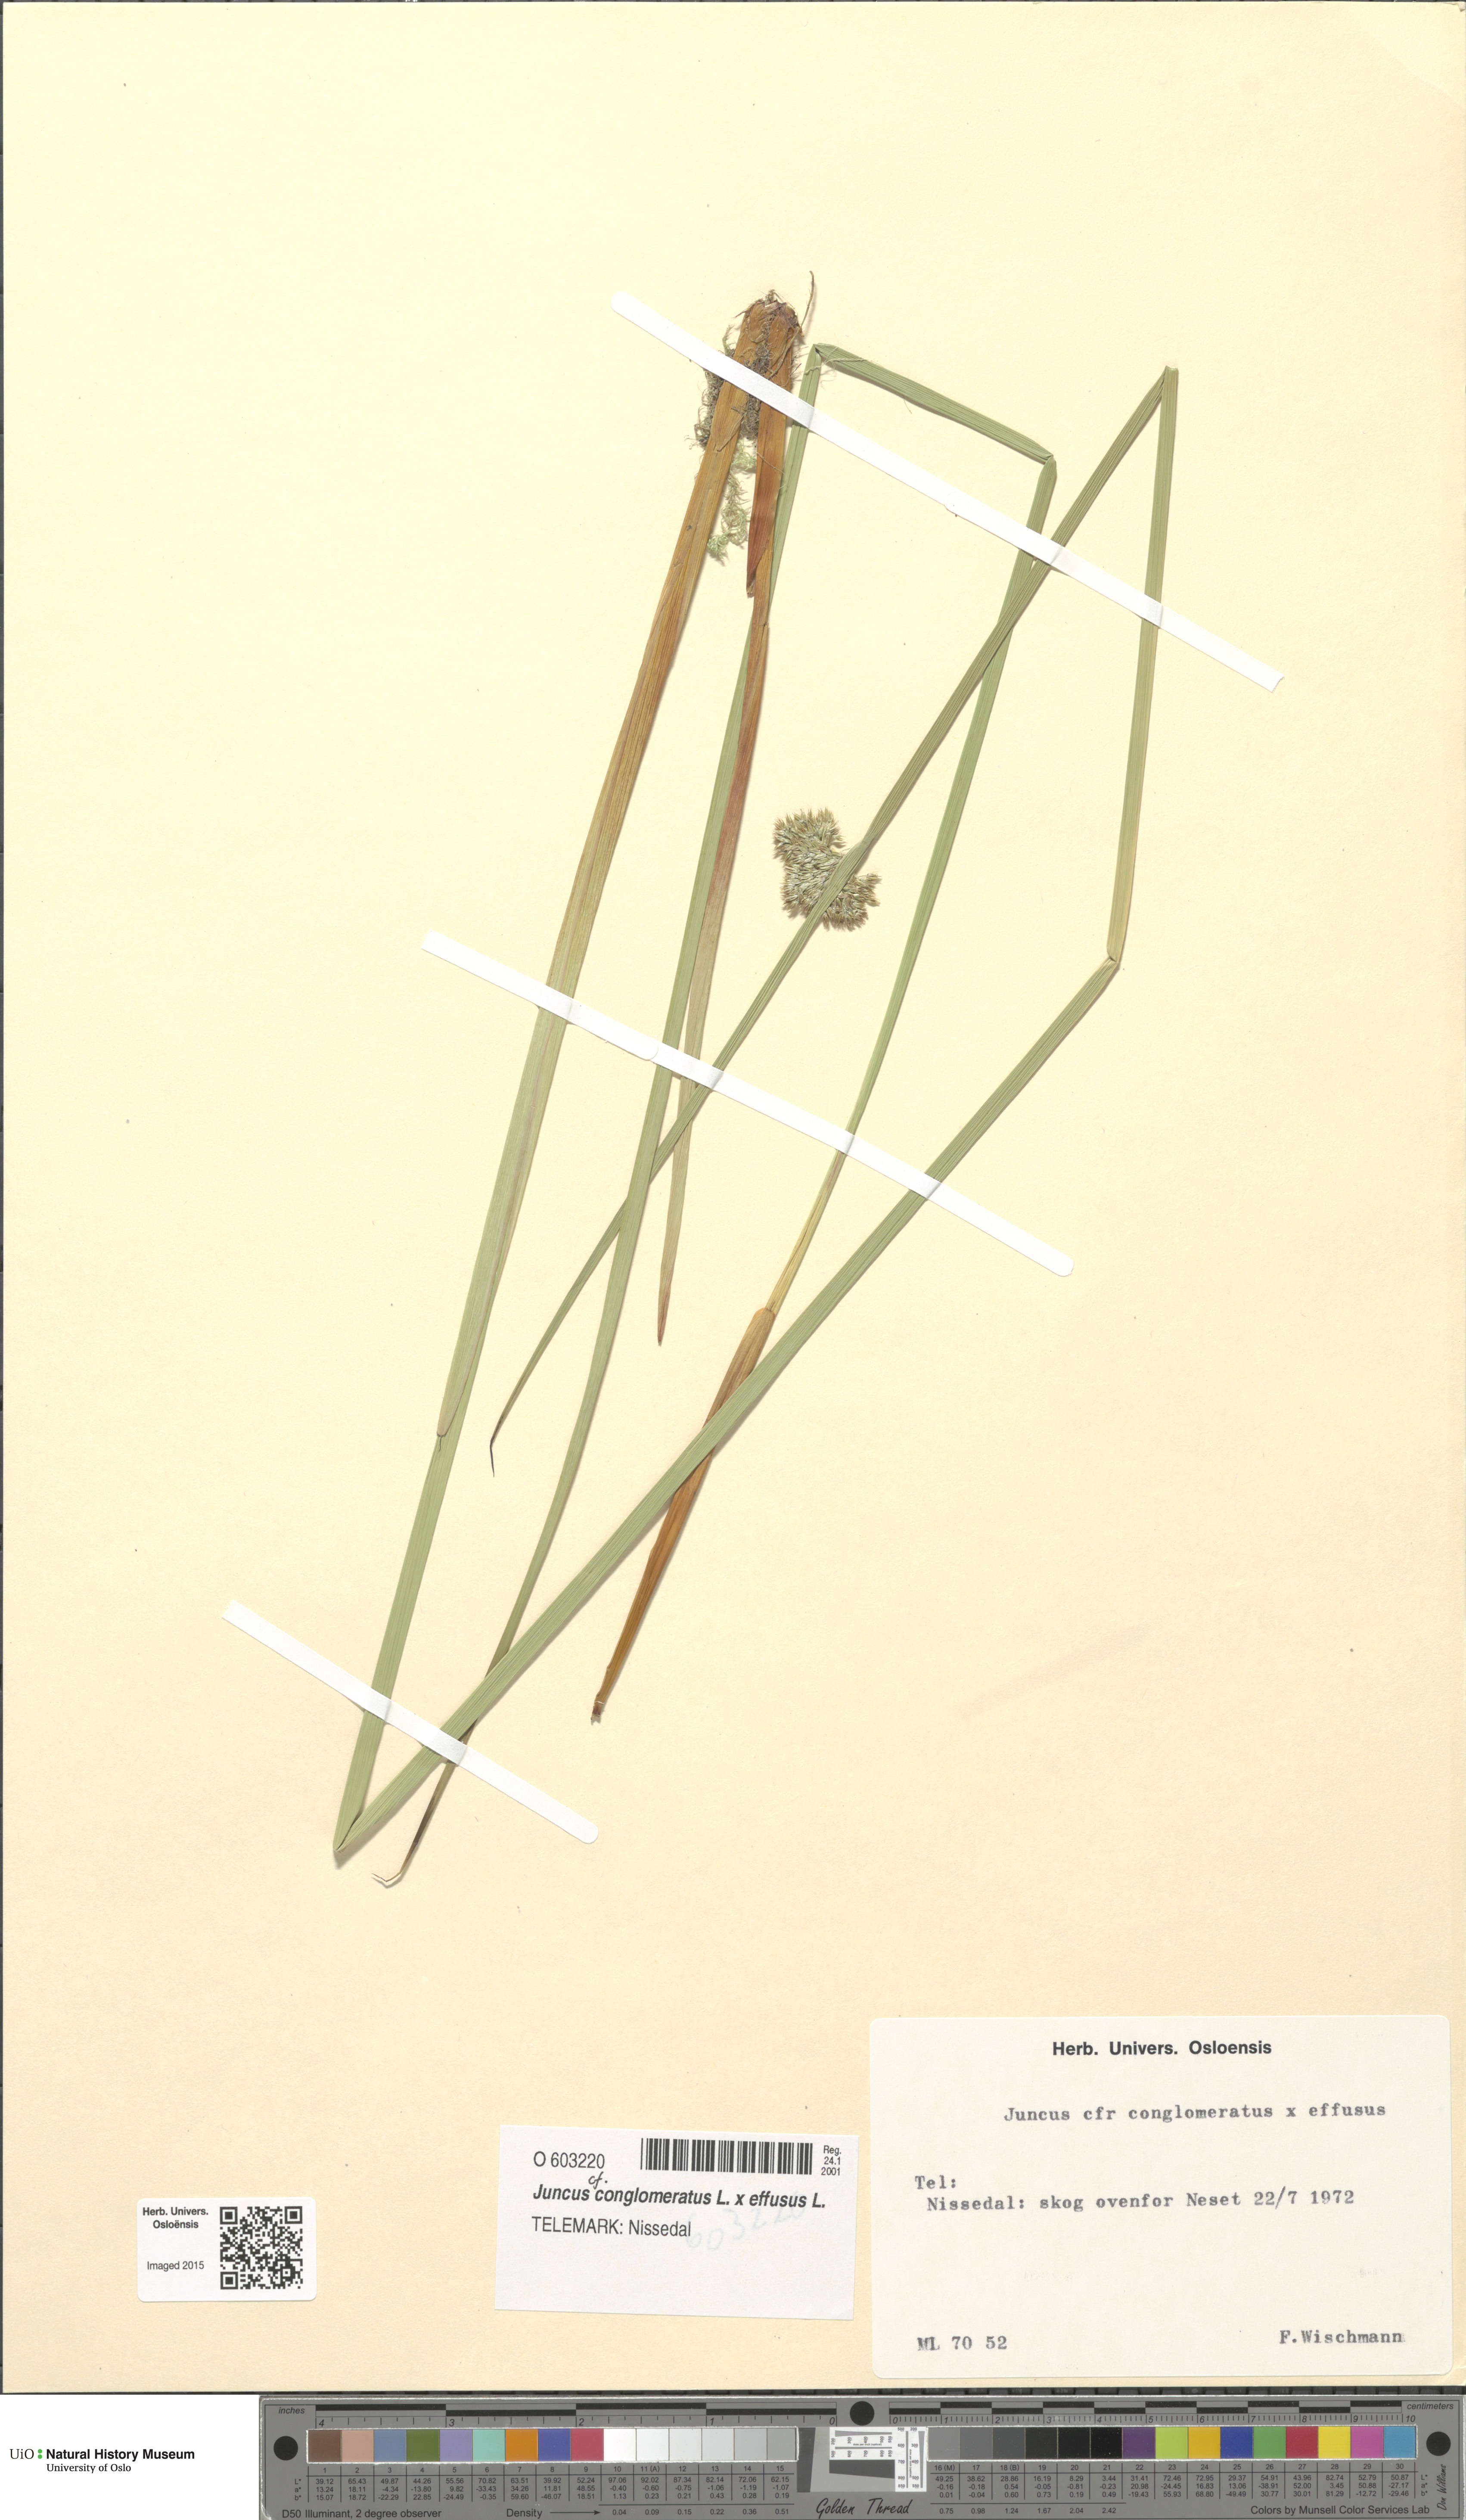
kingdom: Plantae
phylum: Tracheophyta
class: Liliopsida
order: Poales
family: Juncaceae
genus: Juncus
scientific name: Juncus
